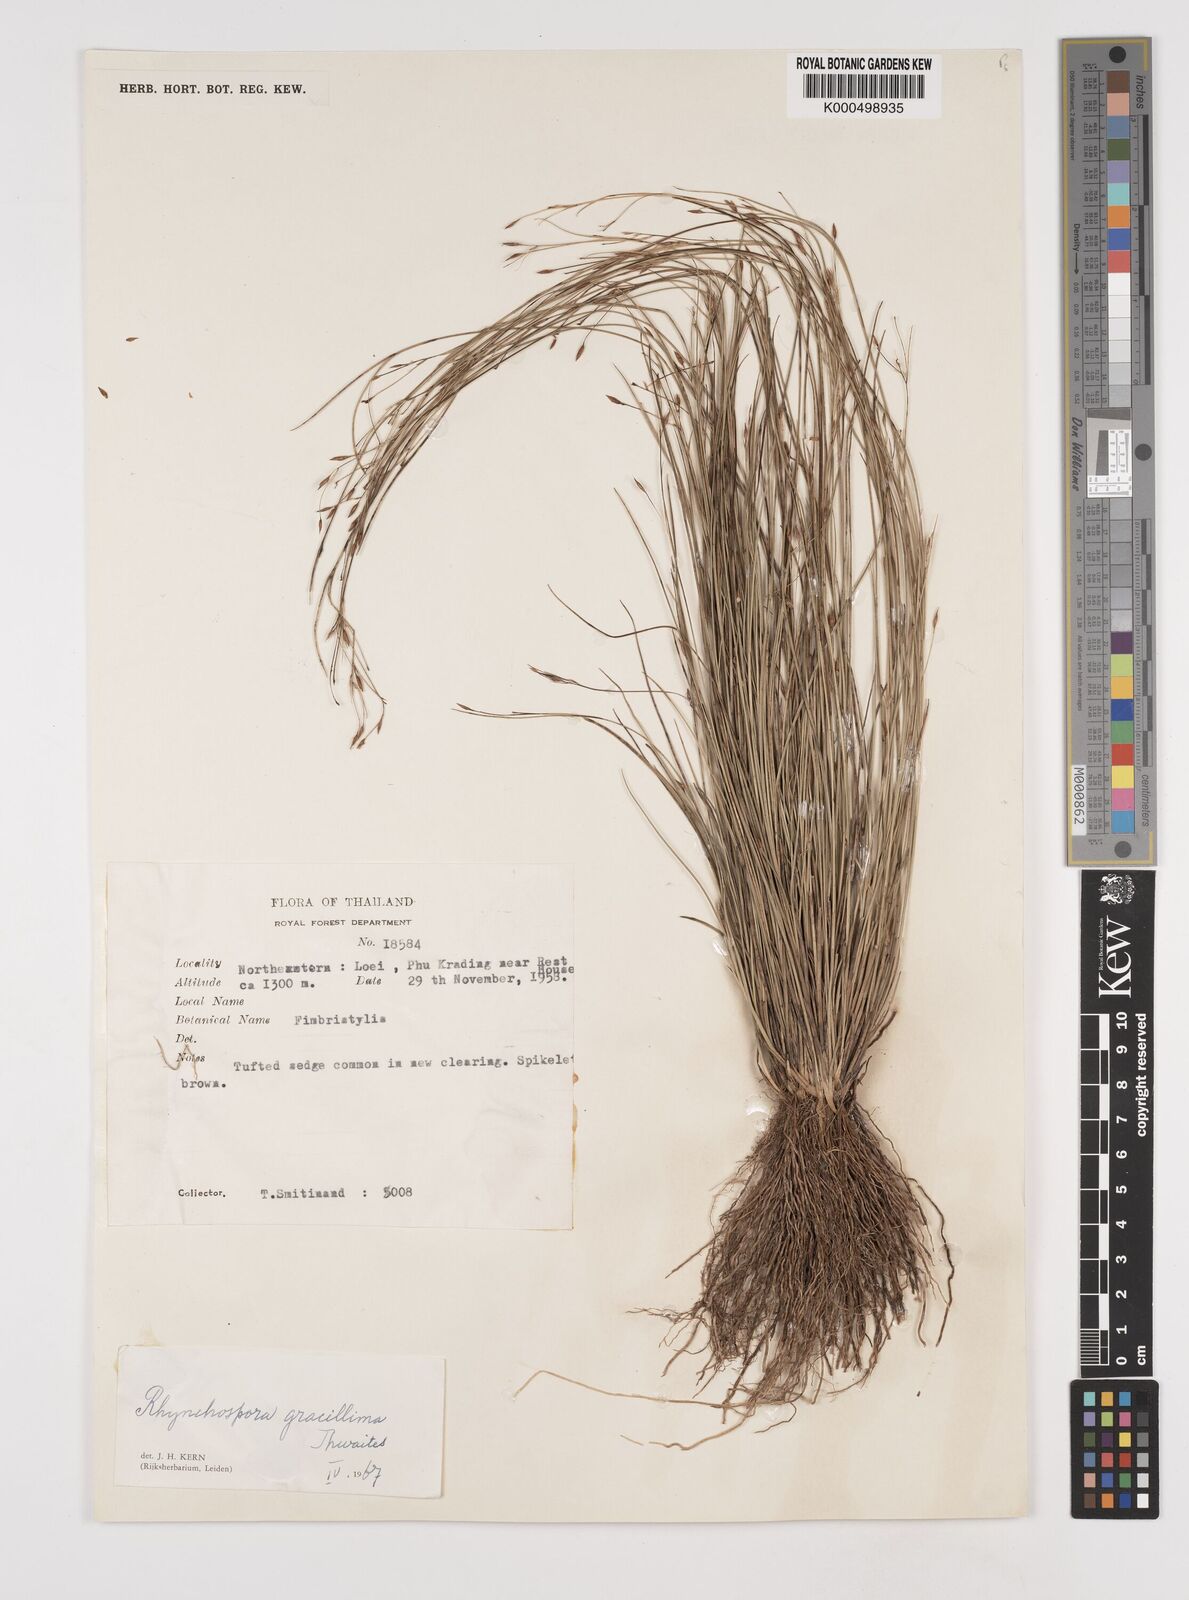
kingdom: Plantae
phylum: Tracheophyta
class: Liliopsida
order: Poales
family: Cyperaceae
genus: Rhynchospora
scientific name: Rhynchospora gracillima
